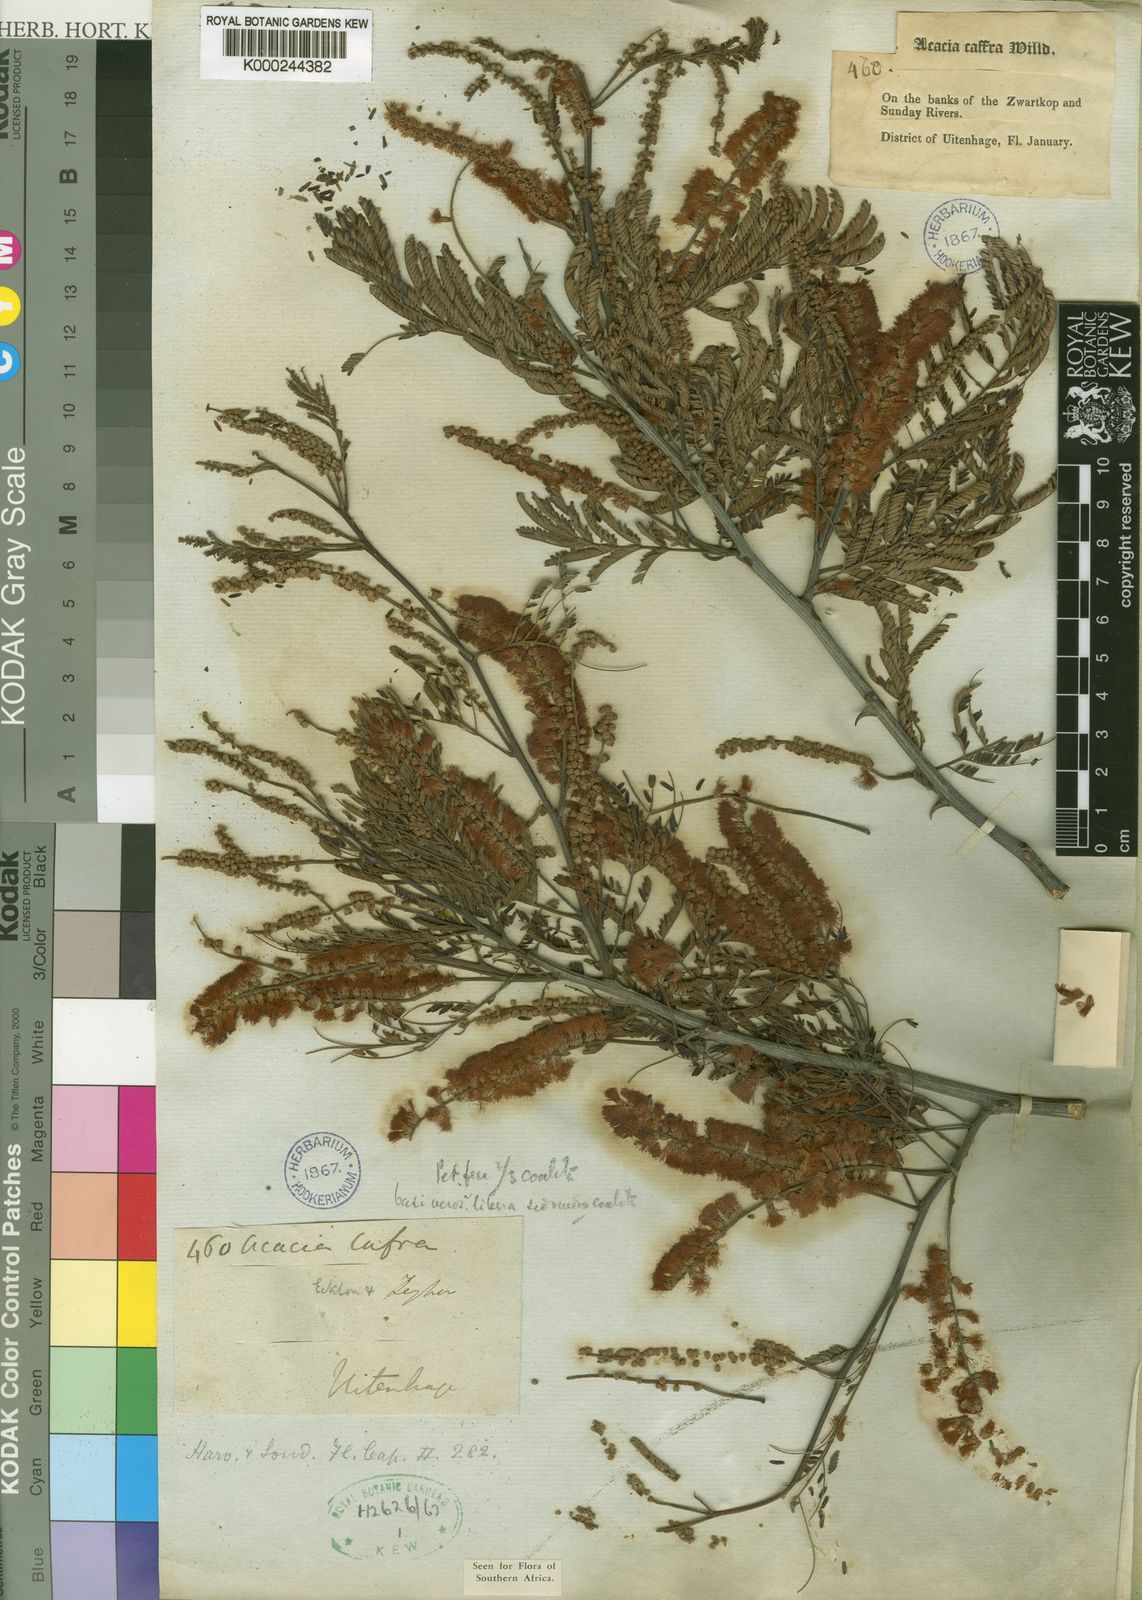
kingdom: Plantae
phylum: Tracheophyta
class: Magnoliopsida
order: Fabales
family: Fabaceae
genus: Senegalia
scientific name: Senegalia caffra
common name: Cat thorn
